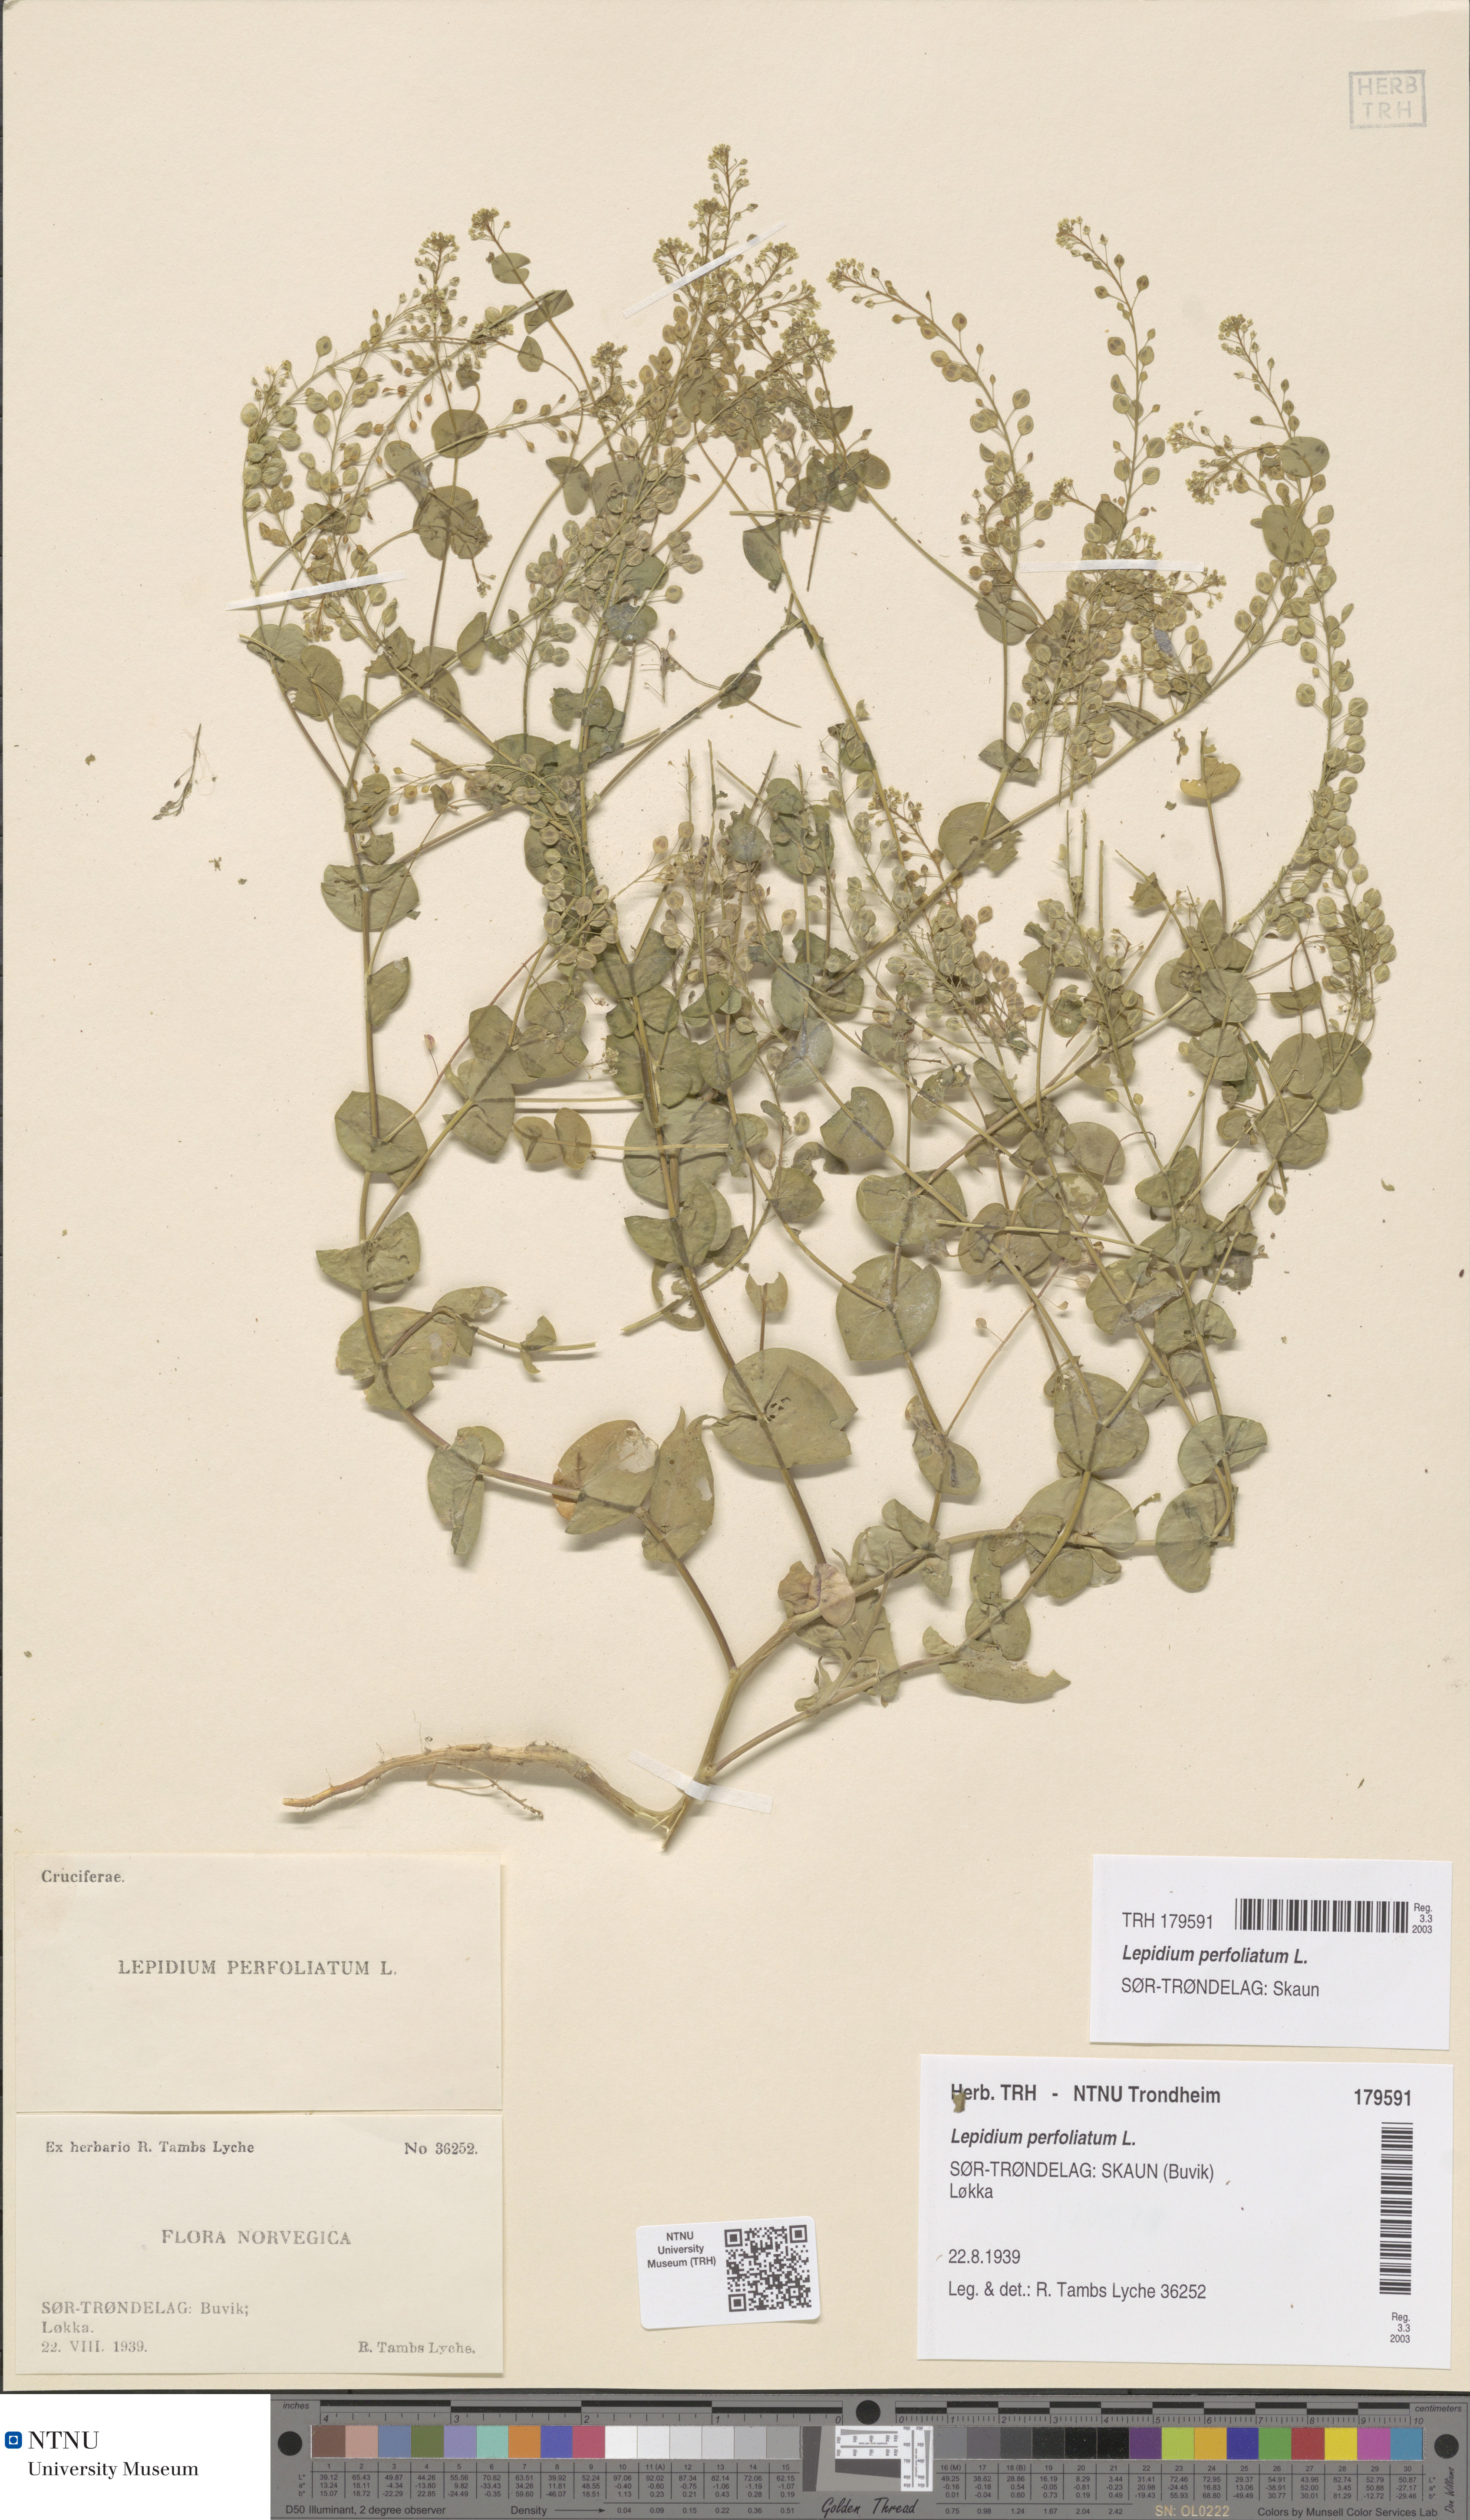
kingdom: Plantae
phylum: Tracheophyta
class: Magnoliopsida
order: Brassicales
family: Brassicaceae
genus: Lepidium
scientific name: Lepidium perfoliatum
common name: Perfoliate pepperwort
